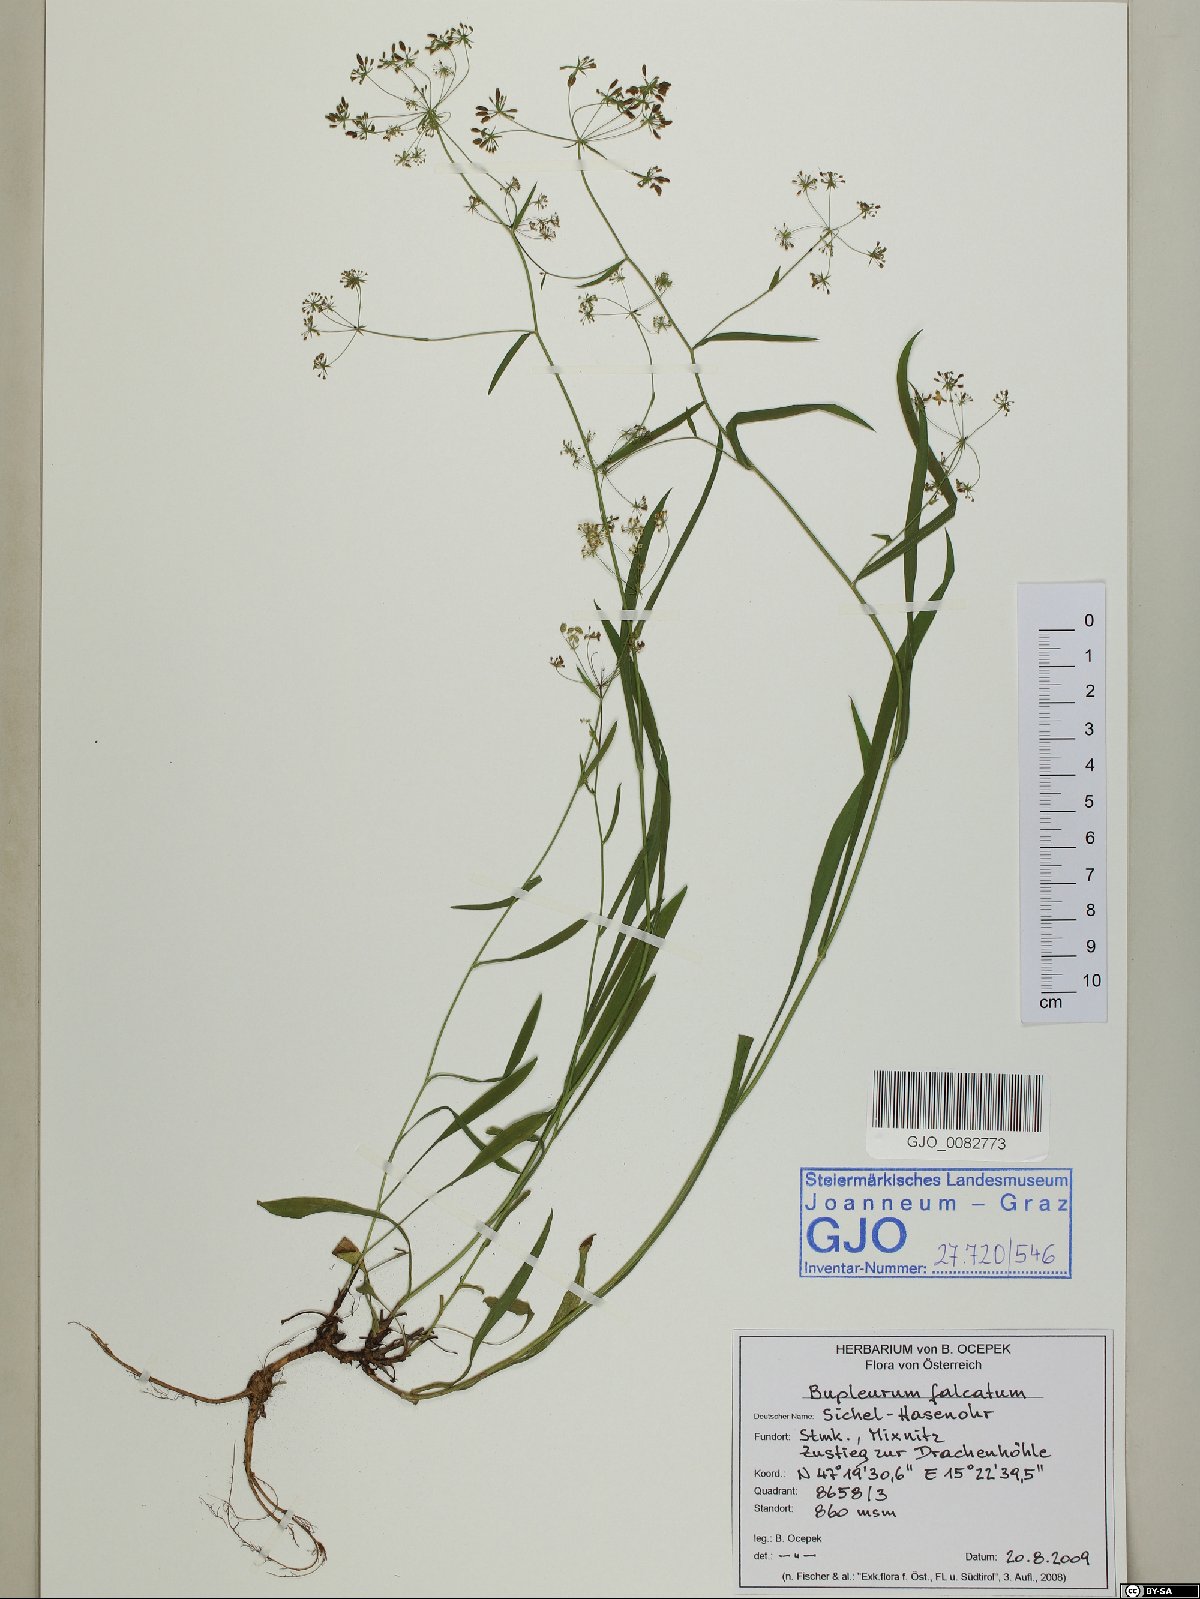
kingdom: Plantae
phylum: Tracheophyta
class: Magnoliopsida
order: Apiales
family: Apiaceae
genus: Bupleurum
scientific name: Bupleurum falcatum
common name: Sickle-leaved hare's-ear
